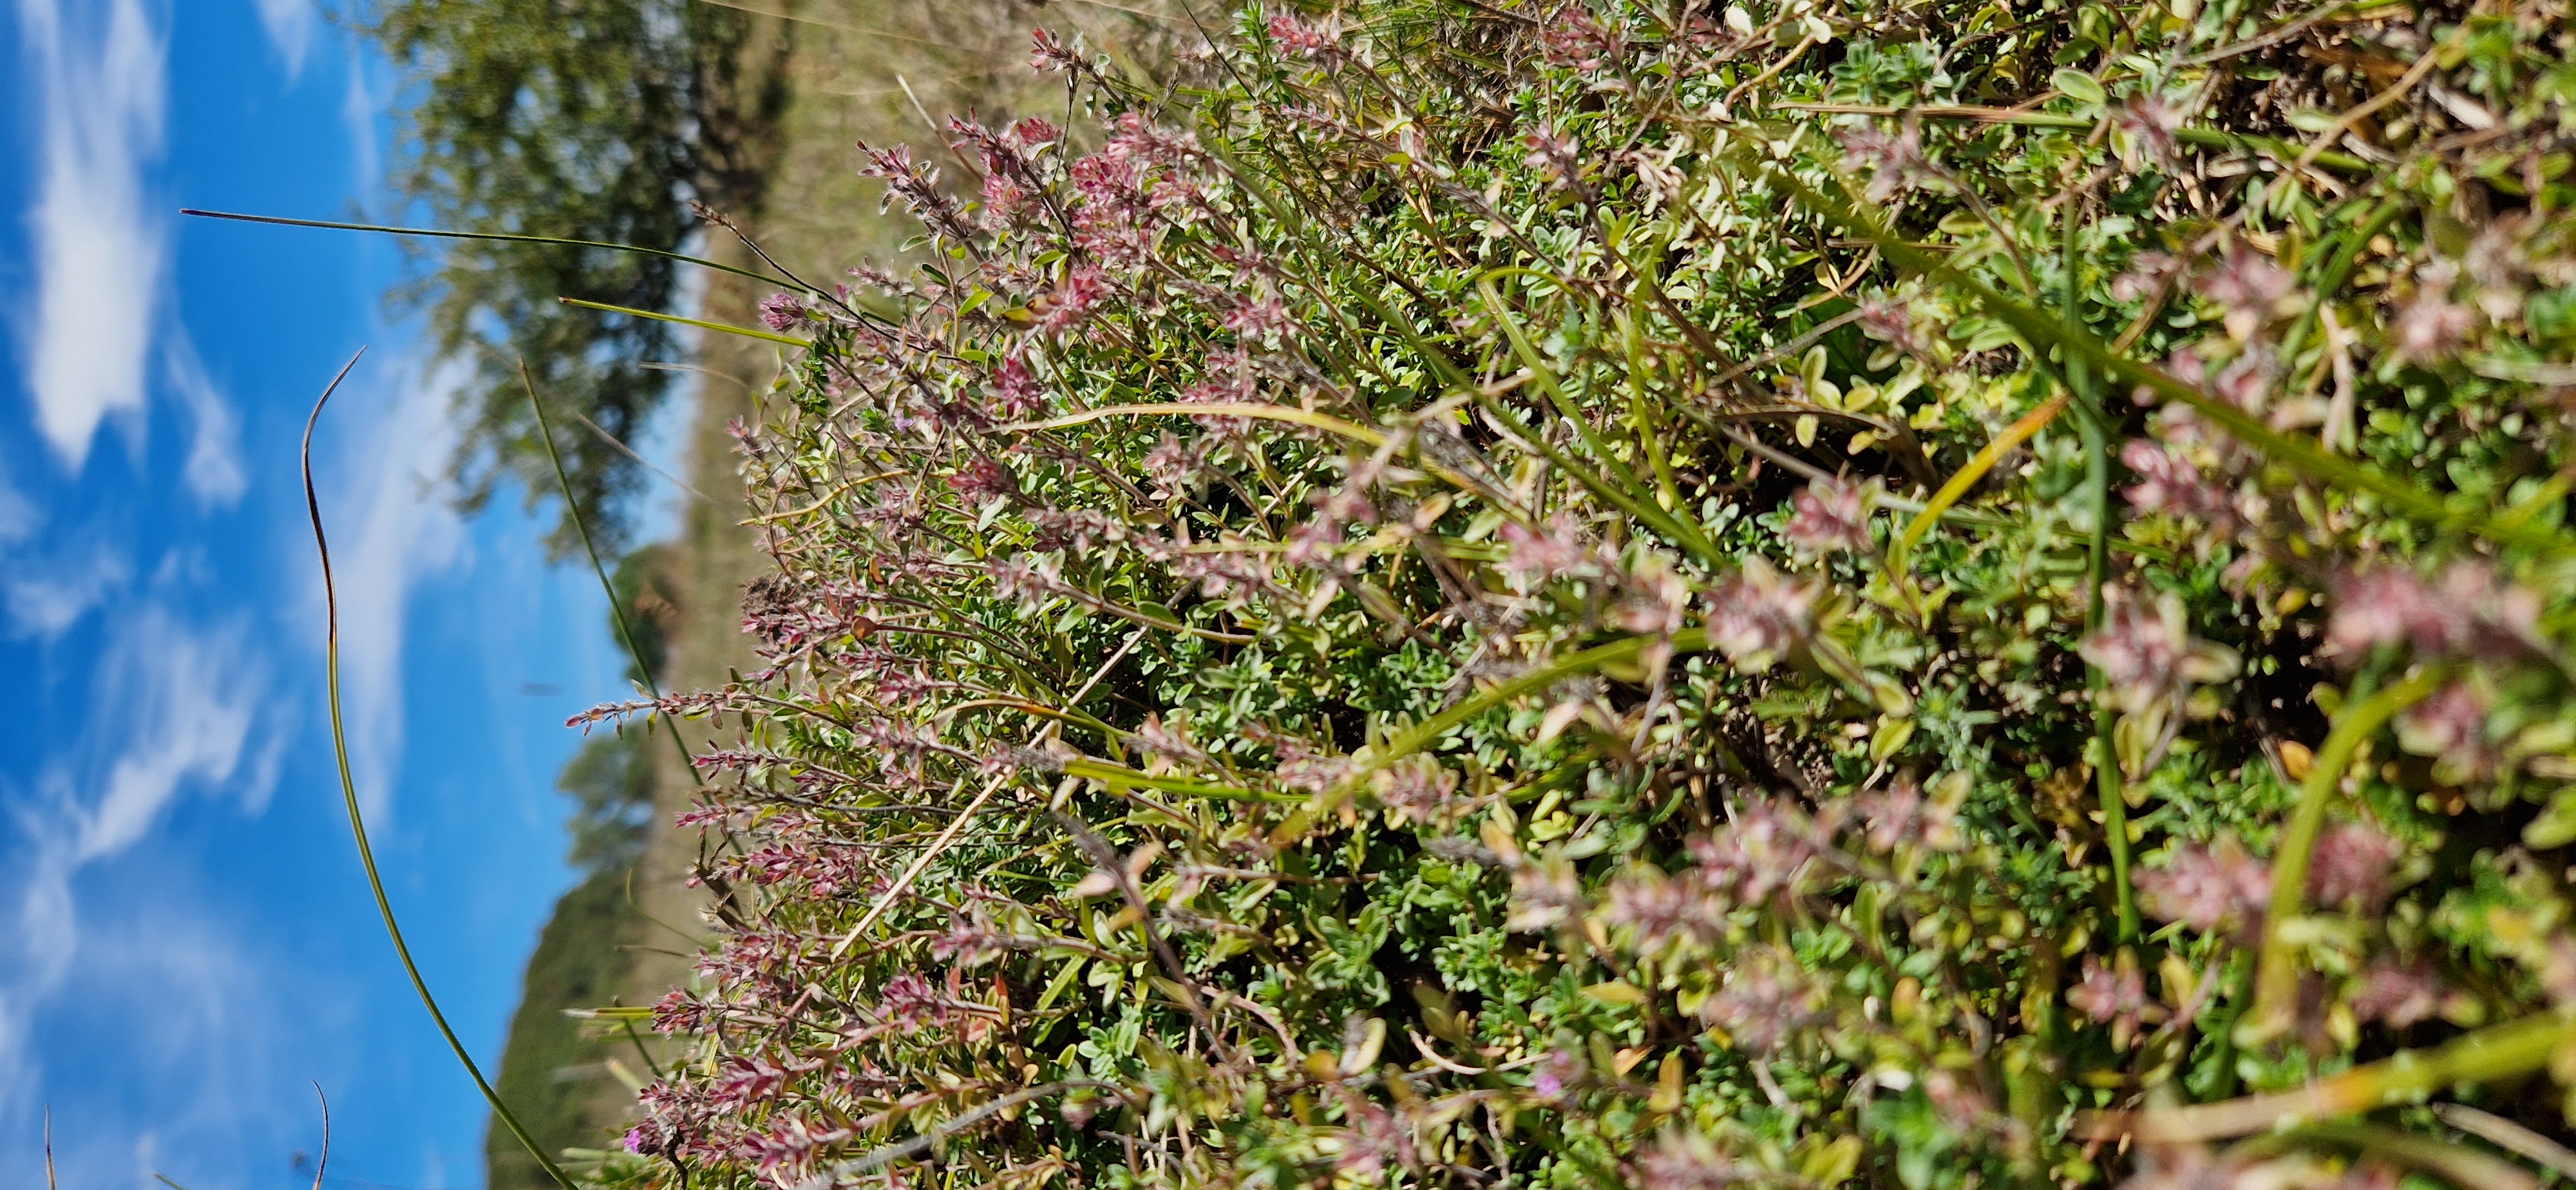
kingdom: Plantae
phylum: Tracheophyta
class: Magnoliopsida
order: Lamiales
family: Lamiaceae
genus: Thymus
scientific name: Thymus serpyllum
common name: Smalbladet timian
